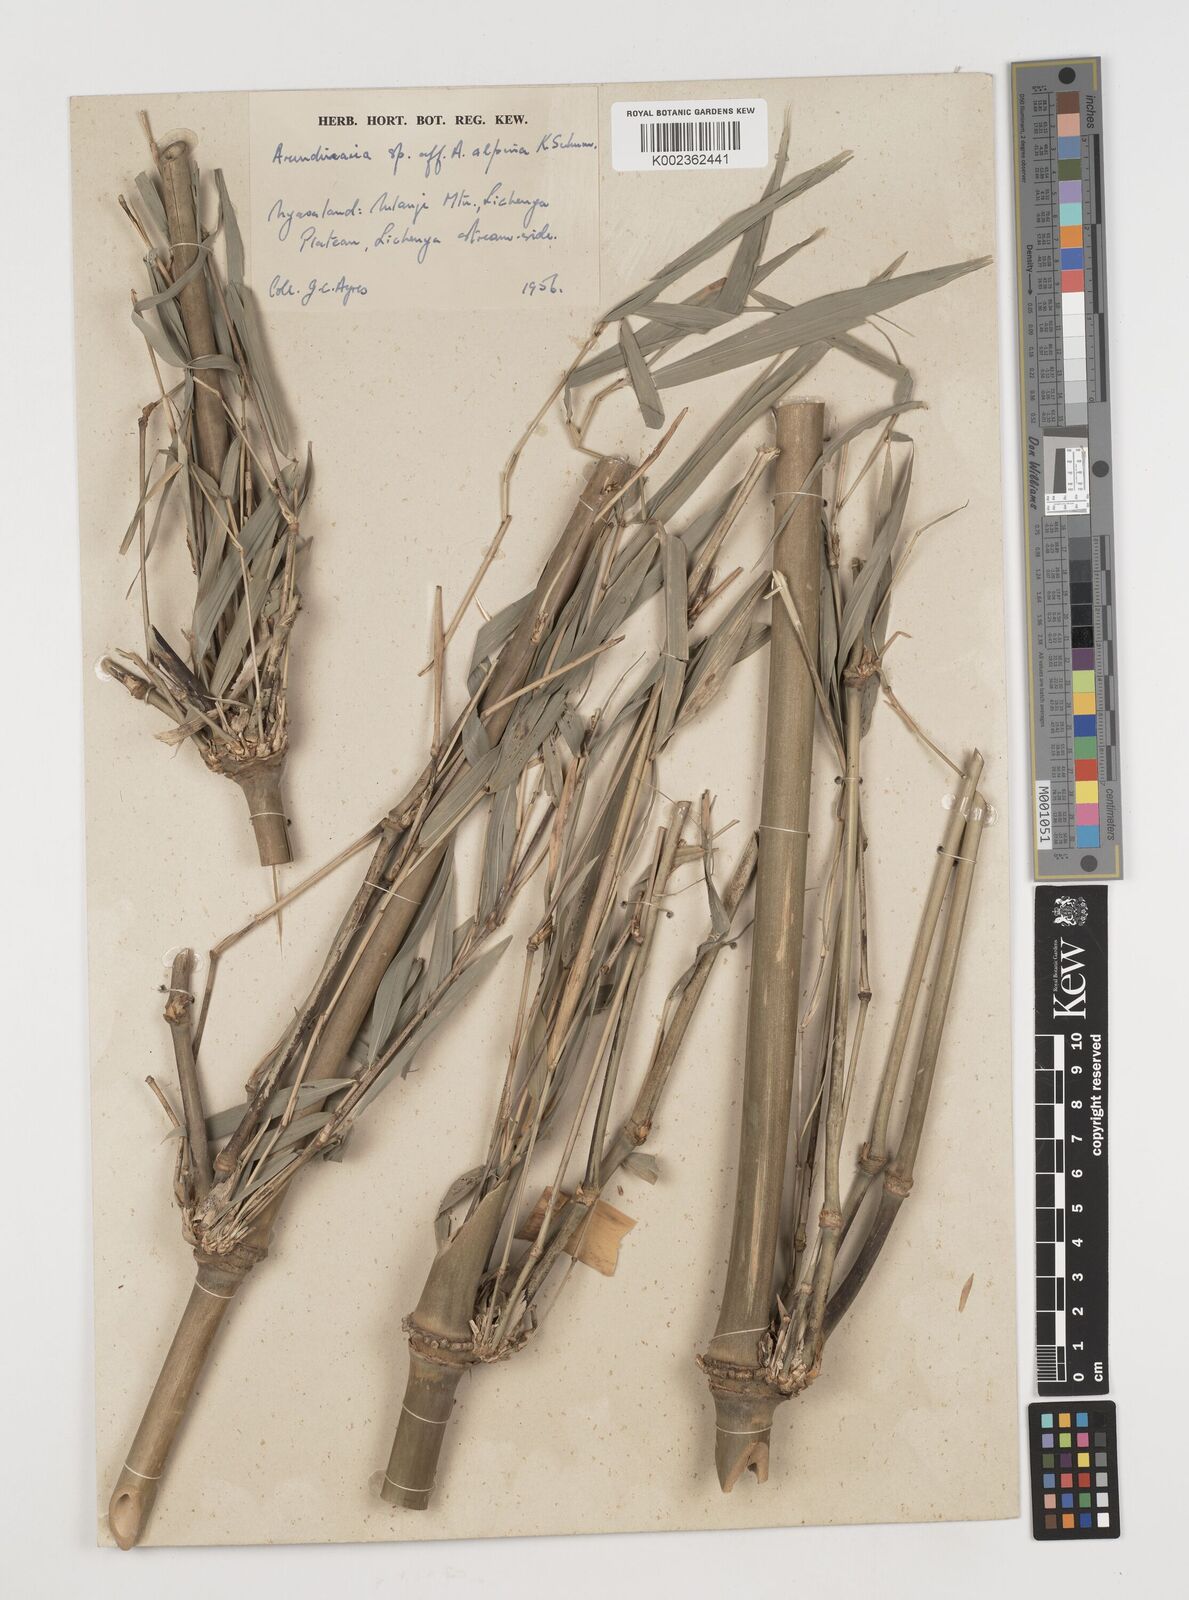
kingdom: Plantae
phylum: Tracheophyta
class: Liliopsida
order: Poales
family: Poaceae
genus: Oldeania
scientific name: Oldeania
